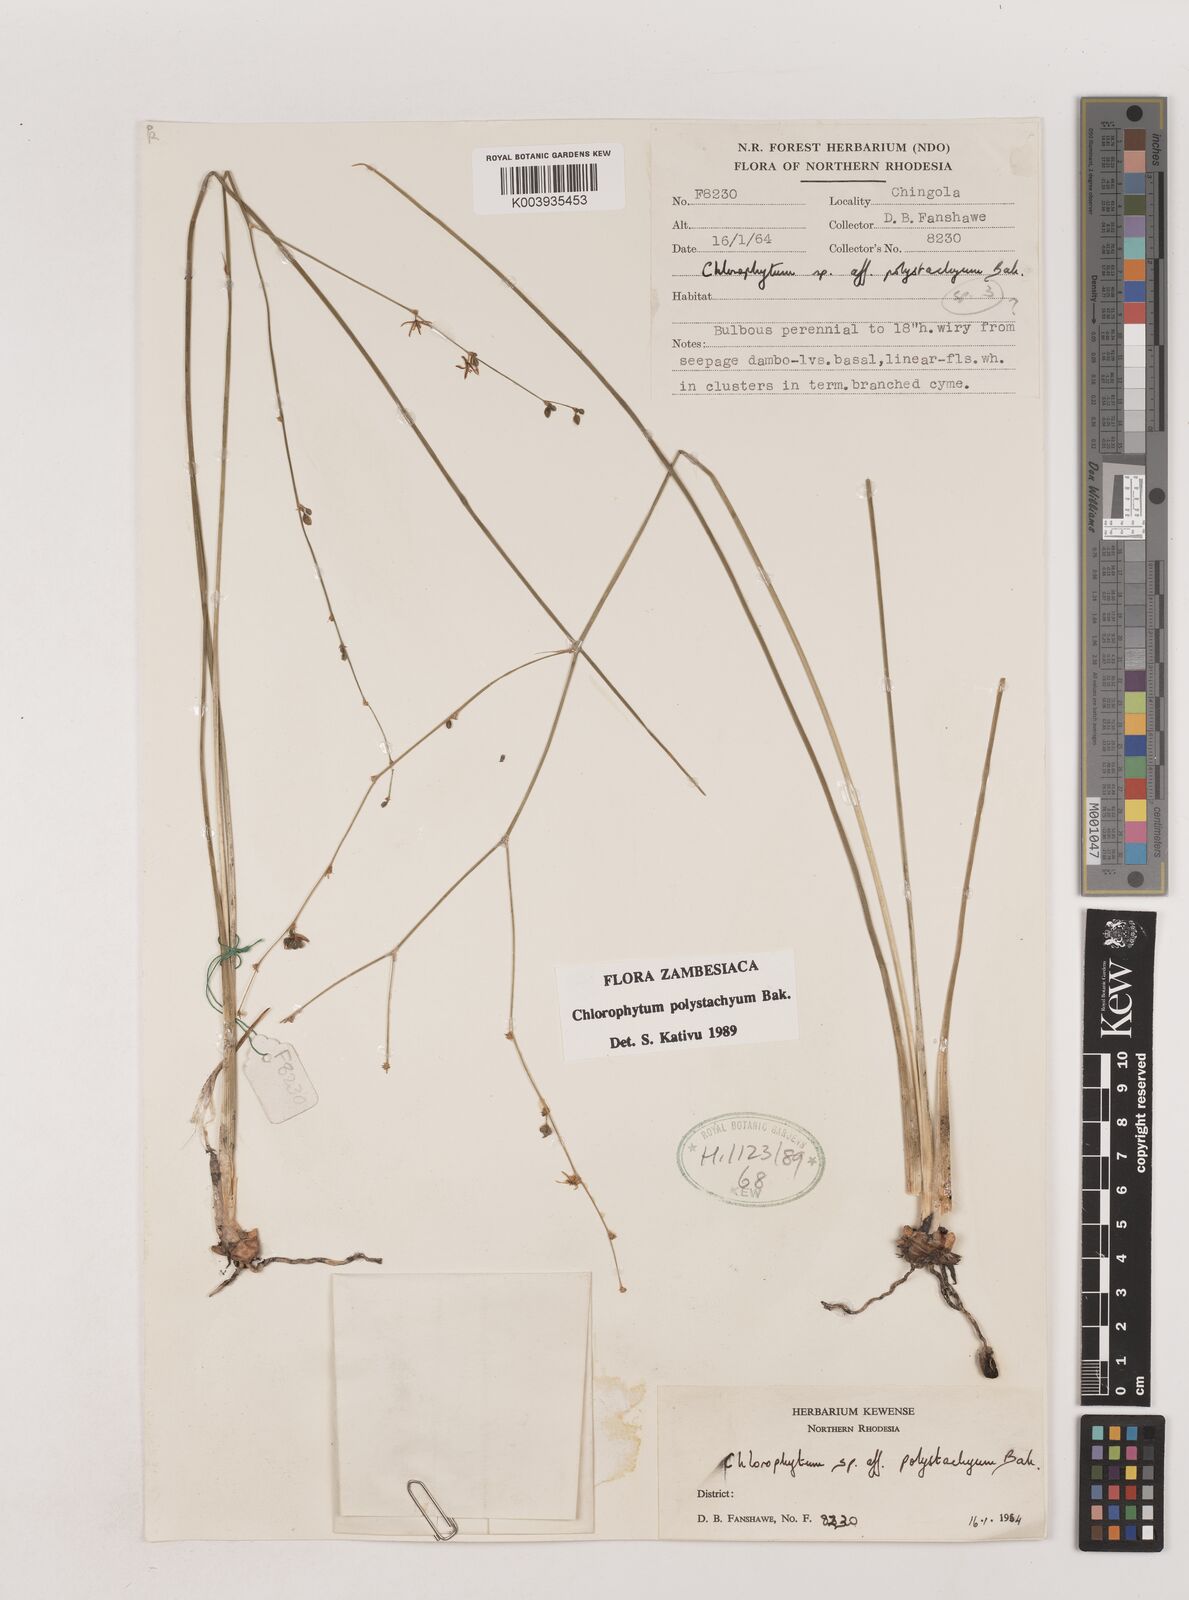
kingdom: Plantae
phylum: Tracheophyta
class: Liliopsida
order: Asparagales
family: Asparagaceae
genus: Chlorophytum
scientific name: Chlorophytum polystachys
